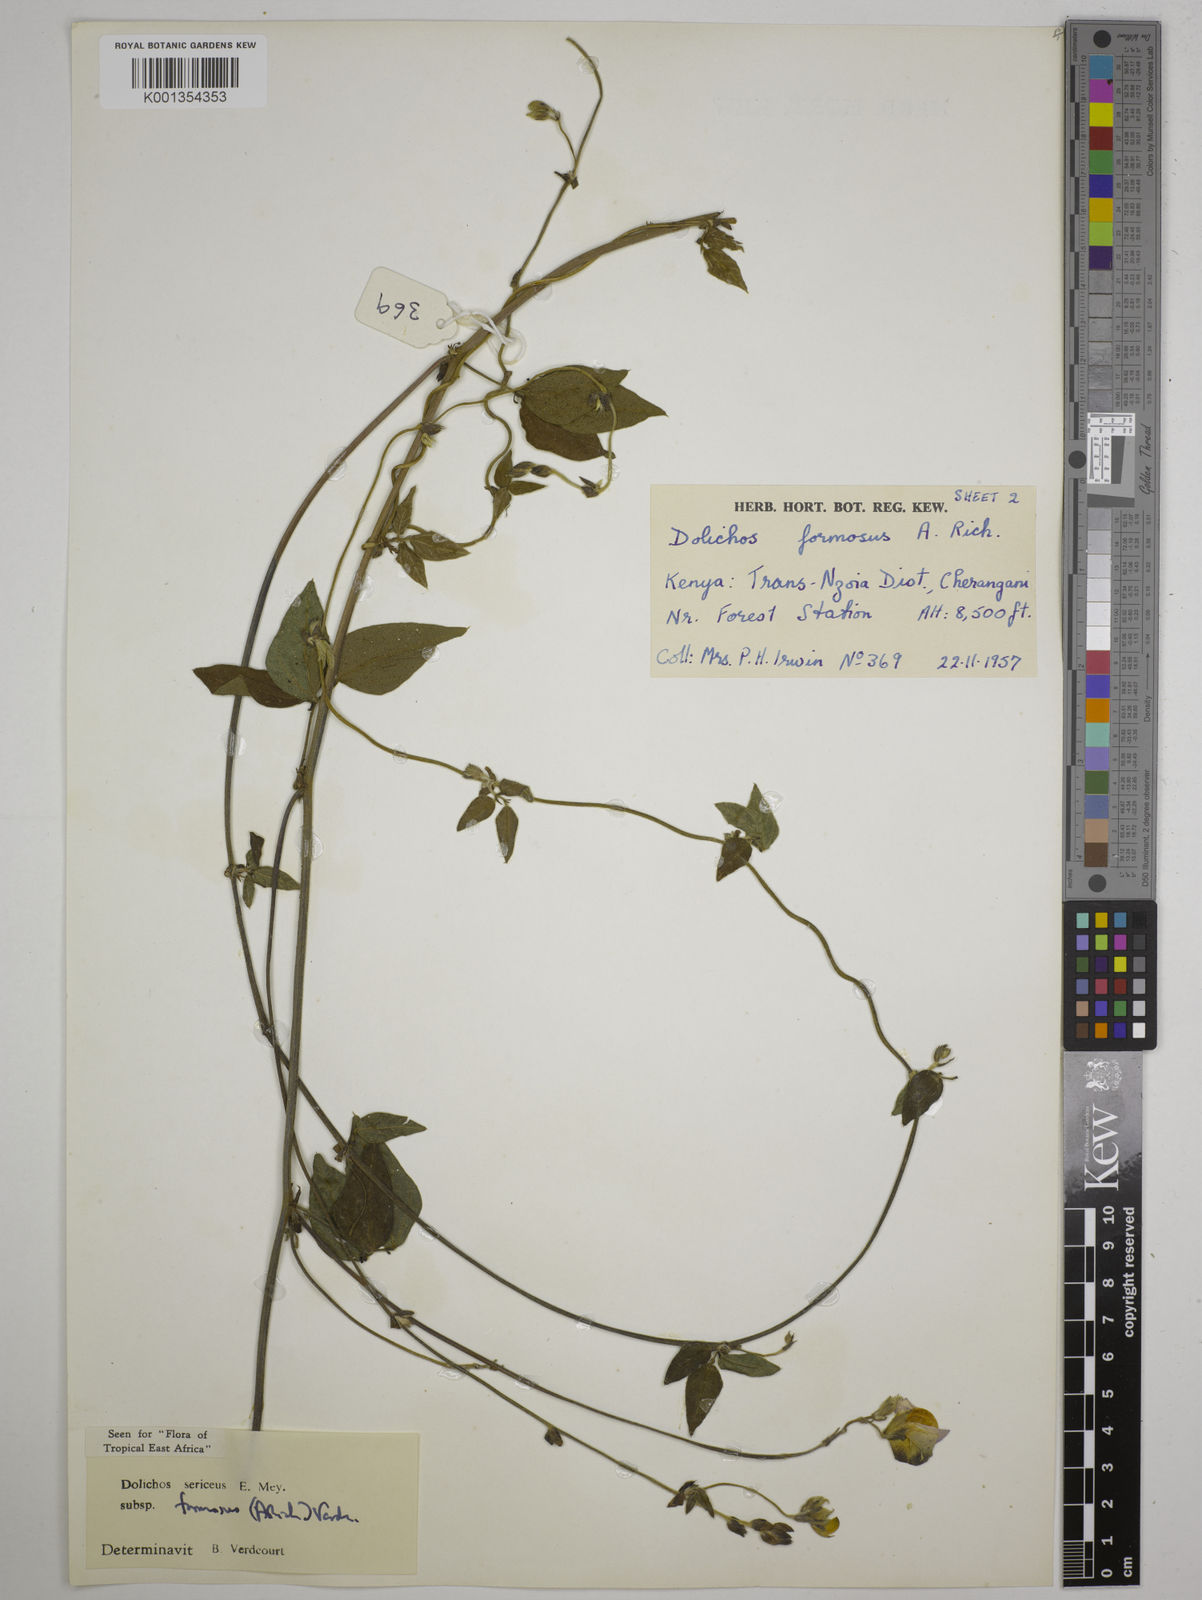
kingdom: Plantae
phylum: Tracheophyta
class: Magnoliopsida
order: Fabales
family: Fabaceae
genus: Dolichos
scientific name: Dolichos
